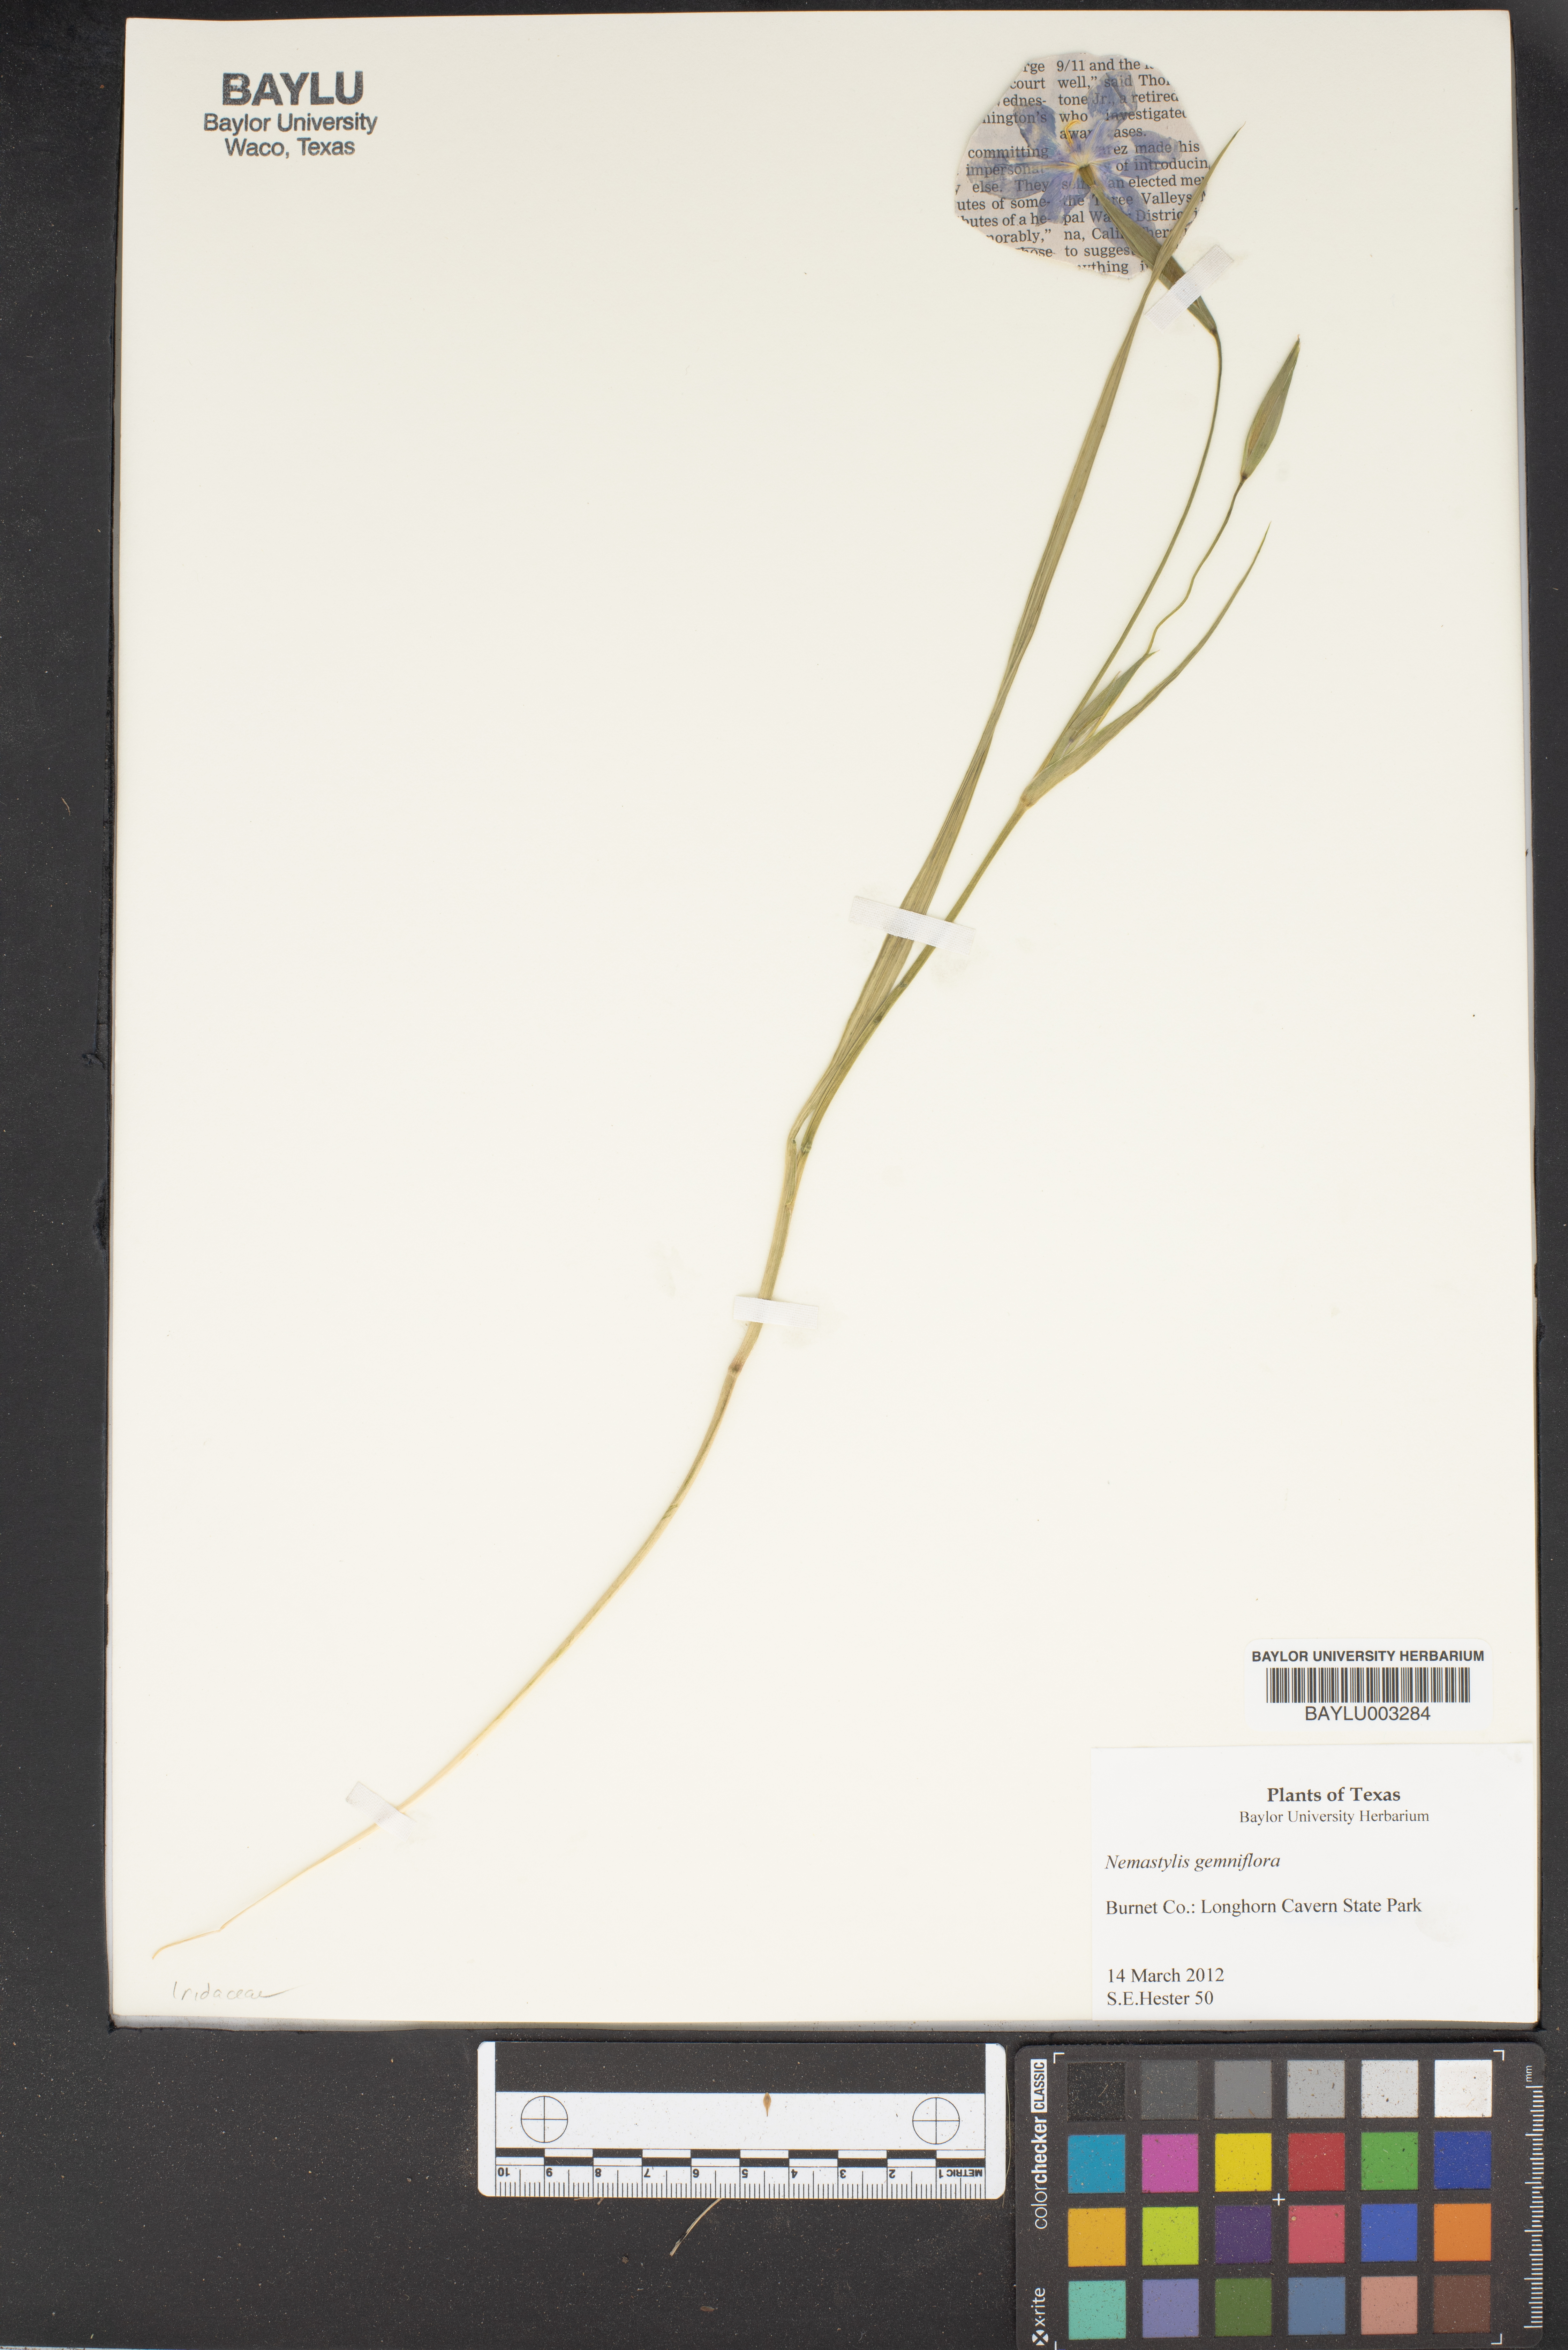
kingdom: Plantae
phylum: Tracheophyta
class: Liliopsida
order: Asparagales
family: Iridaceae
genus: Nemastylis
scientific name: Nemastylis geminiflora
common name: Prairie celestial
